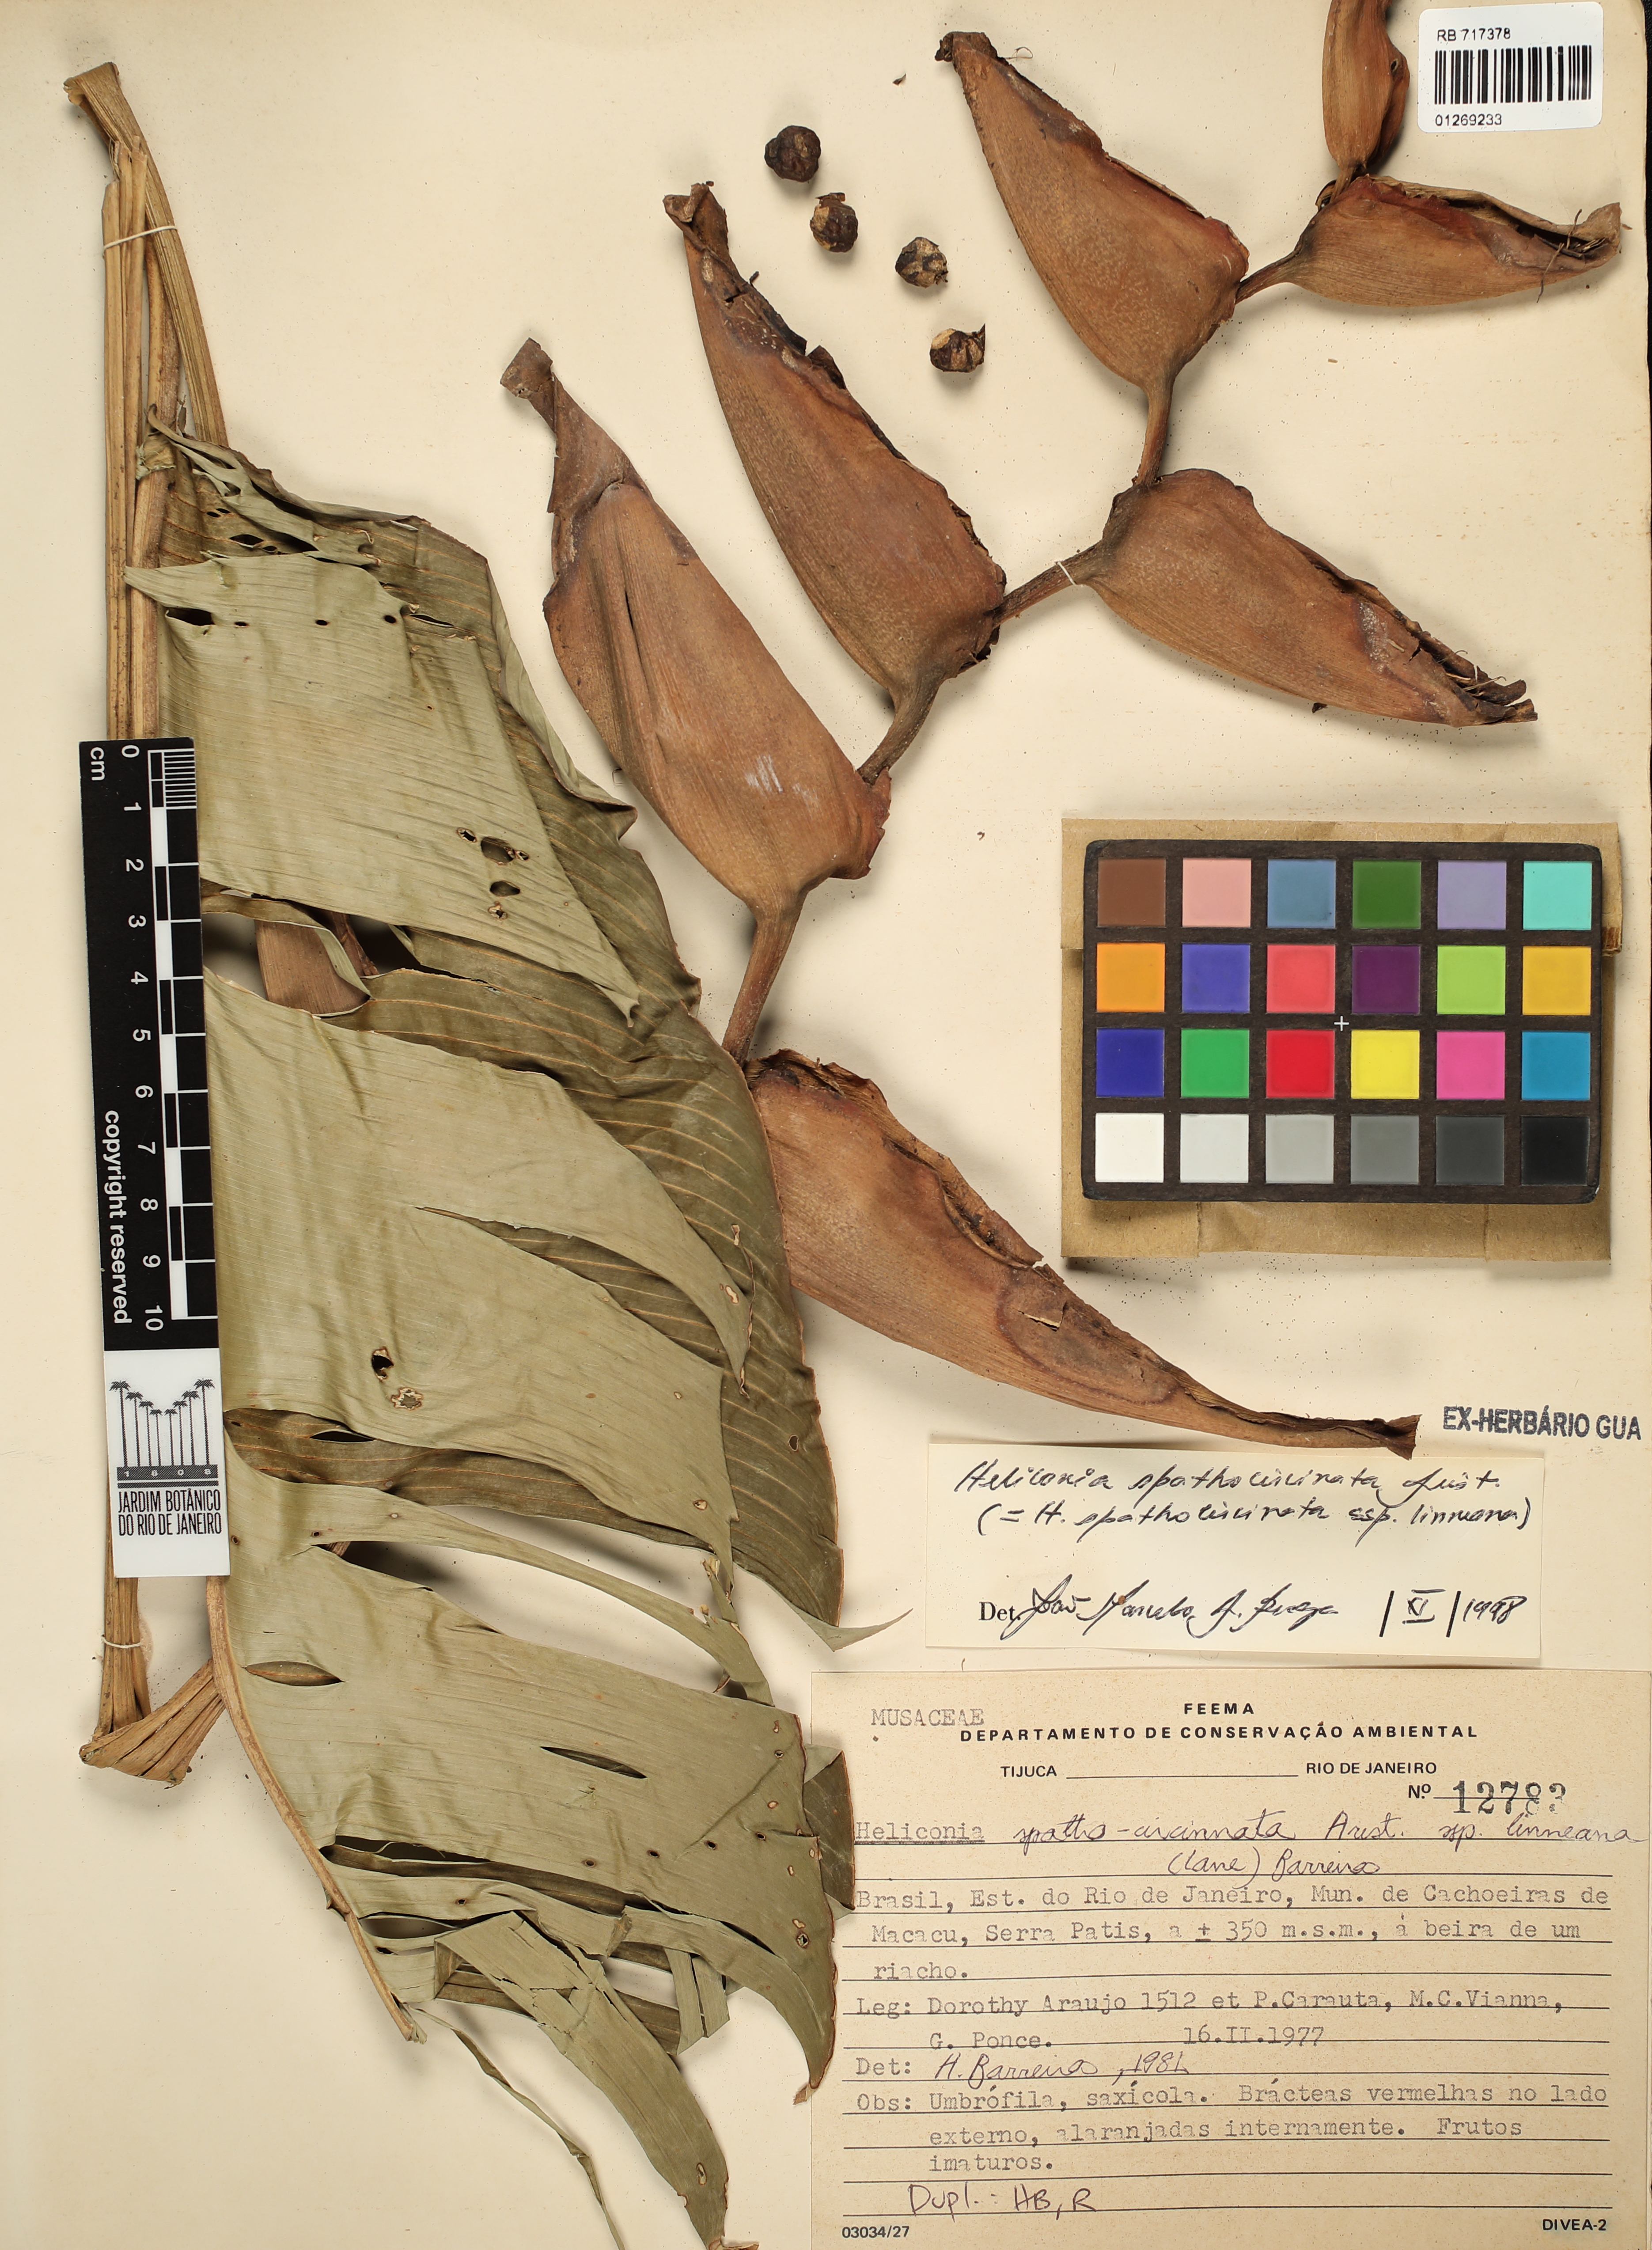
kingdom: Plantae
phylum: Tracheophyta
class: Liliopsida
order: Zingiberales
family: Heliconiaceae
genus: Heliconia
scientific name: Heliconia spathocircinata
